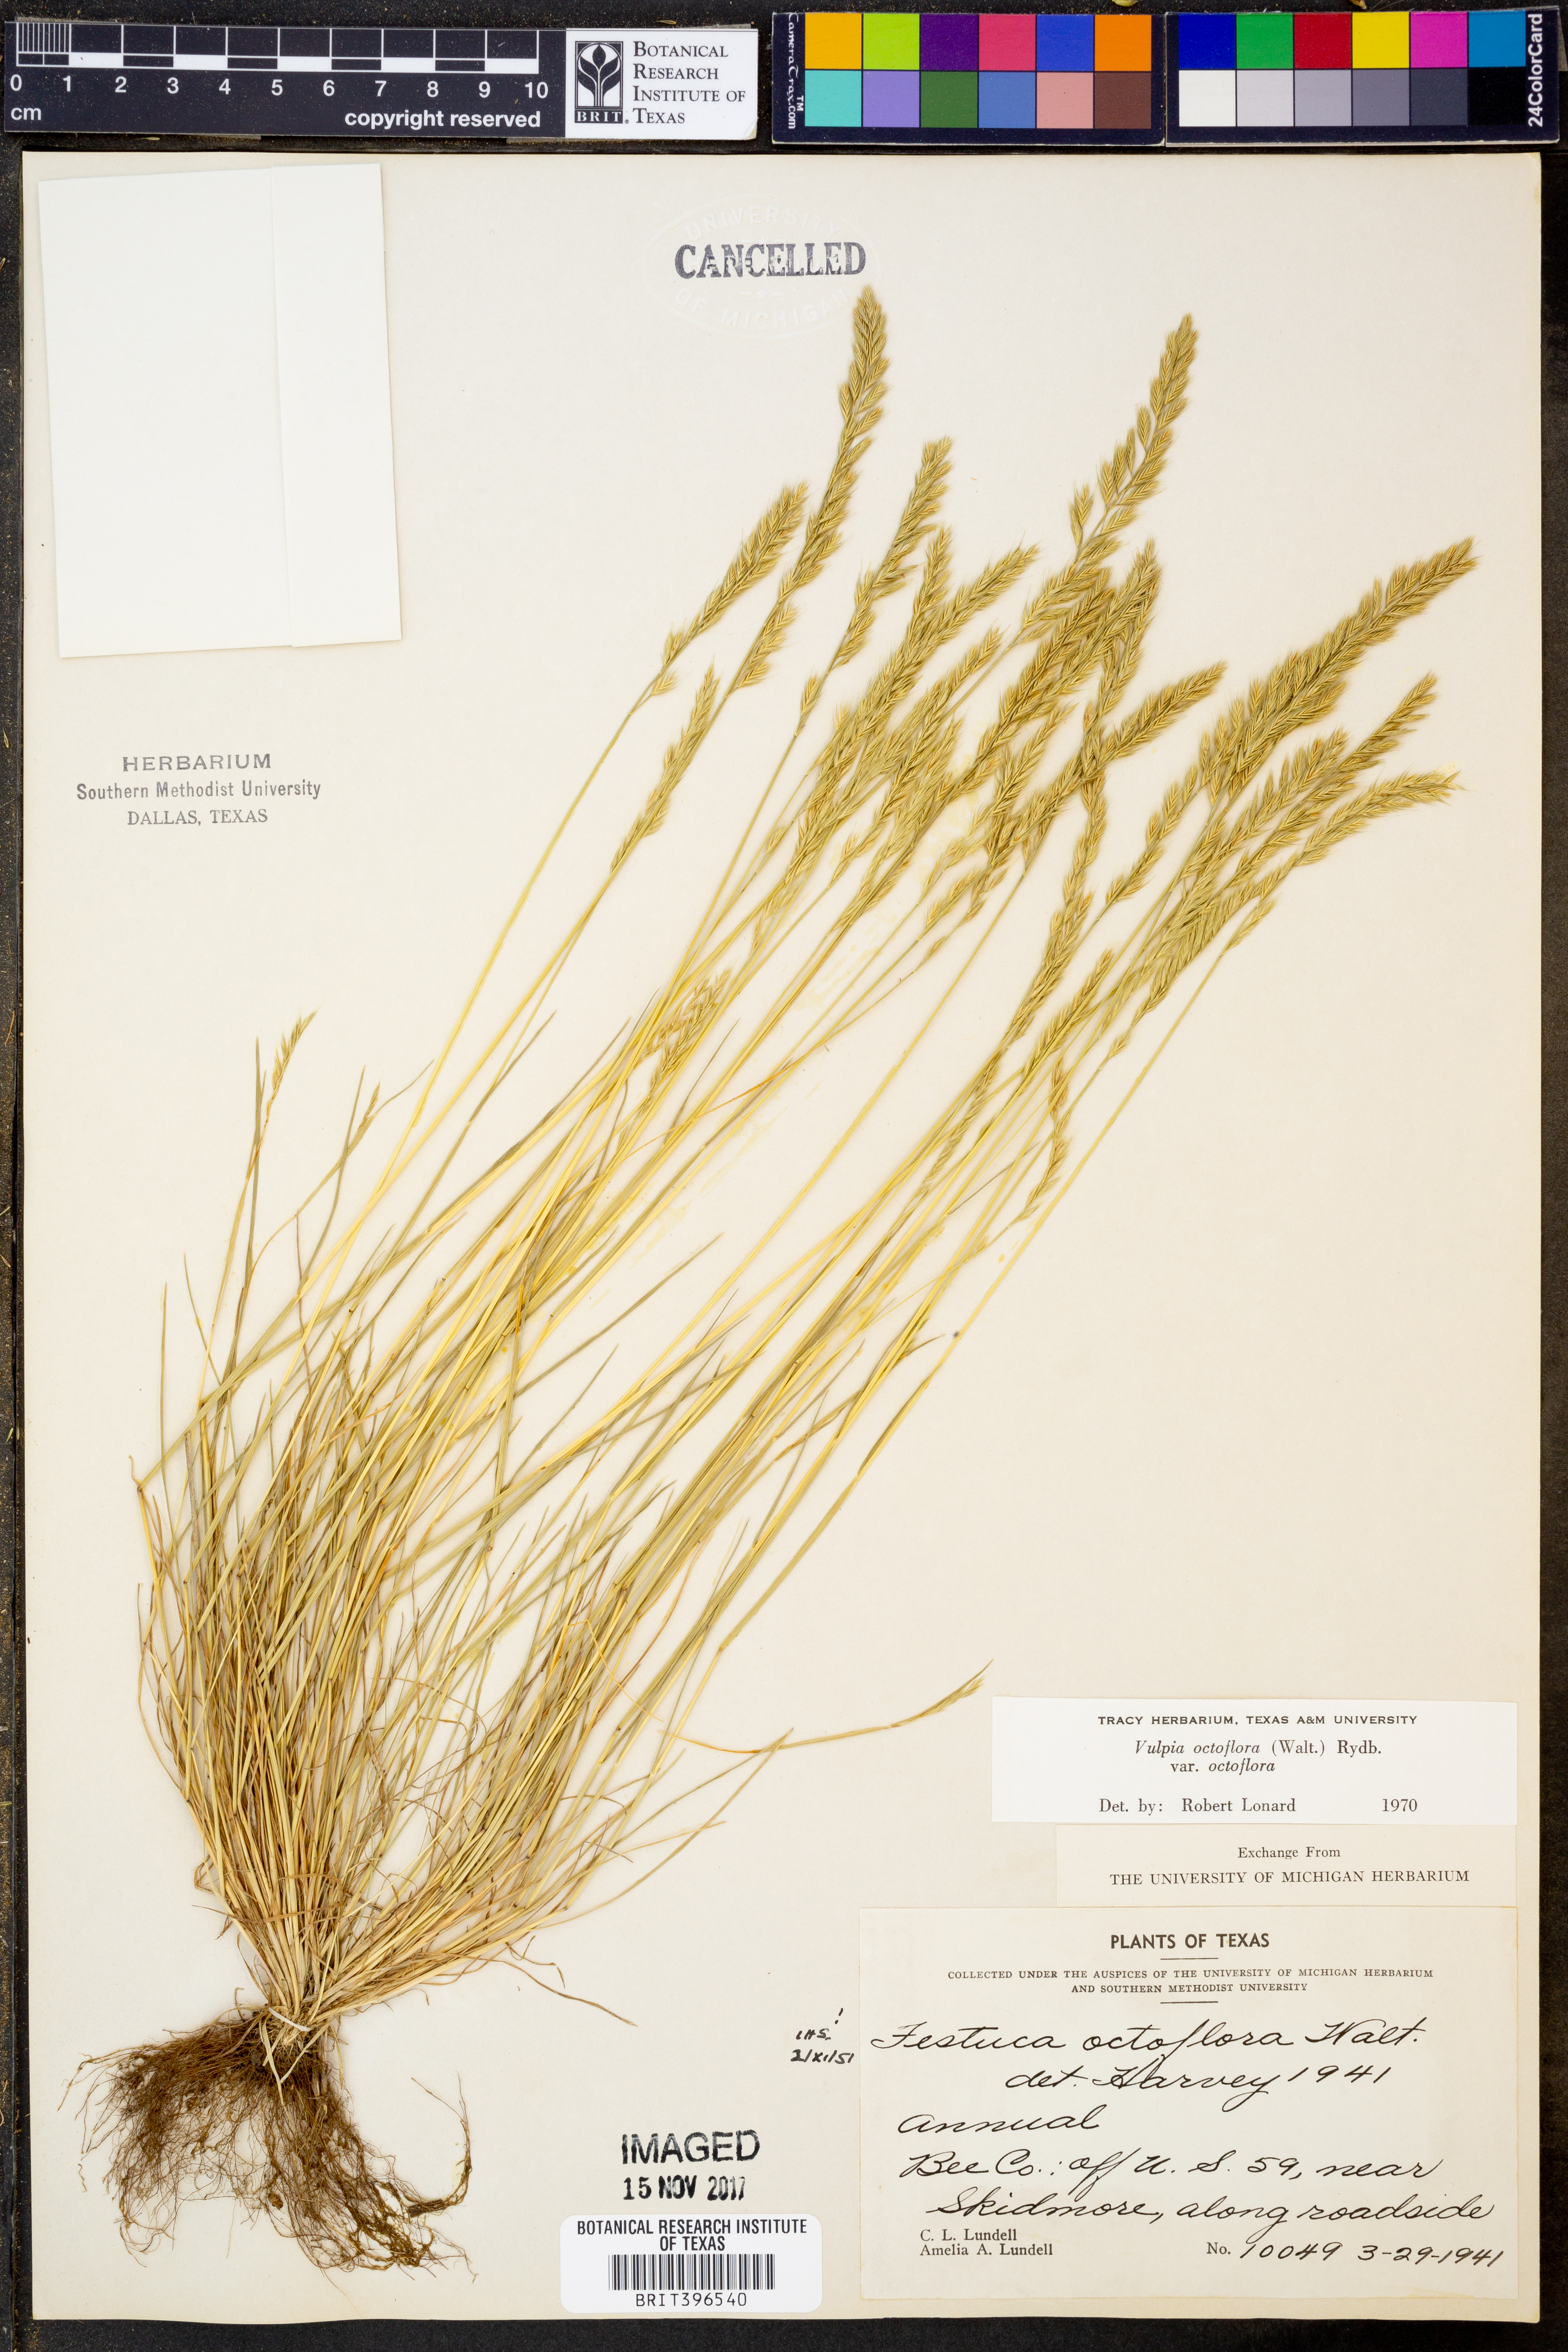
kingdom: Plantae
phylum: Tracheophyta
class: Liliopsida
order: Poales
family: Poaceae
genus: Festuca
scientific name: Festuca octoflora
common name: Sixweeks grass
